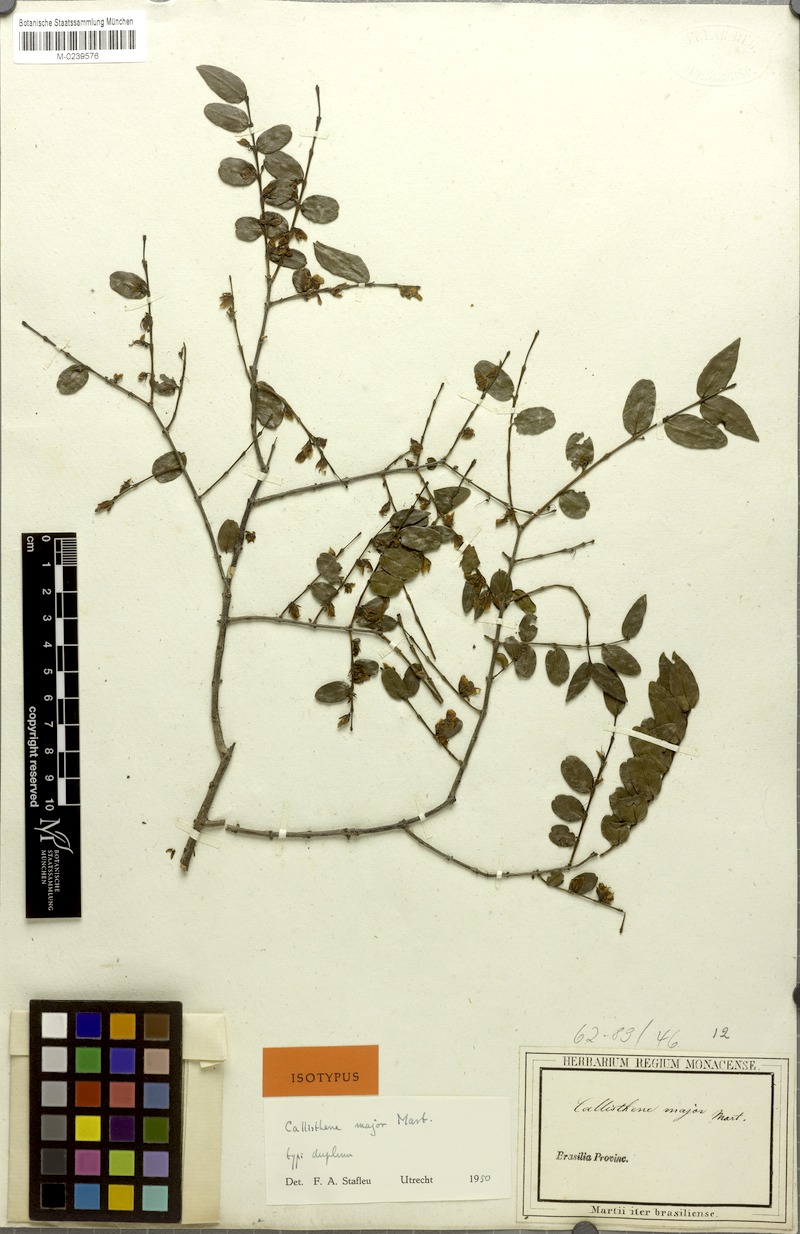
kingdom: Plantae
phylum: Tracheophyta
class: Magnoliopsida
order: Myrtales
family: Vochysiaceae
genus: Callisthene
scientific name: Callisthene major
